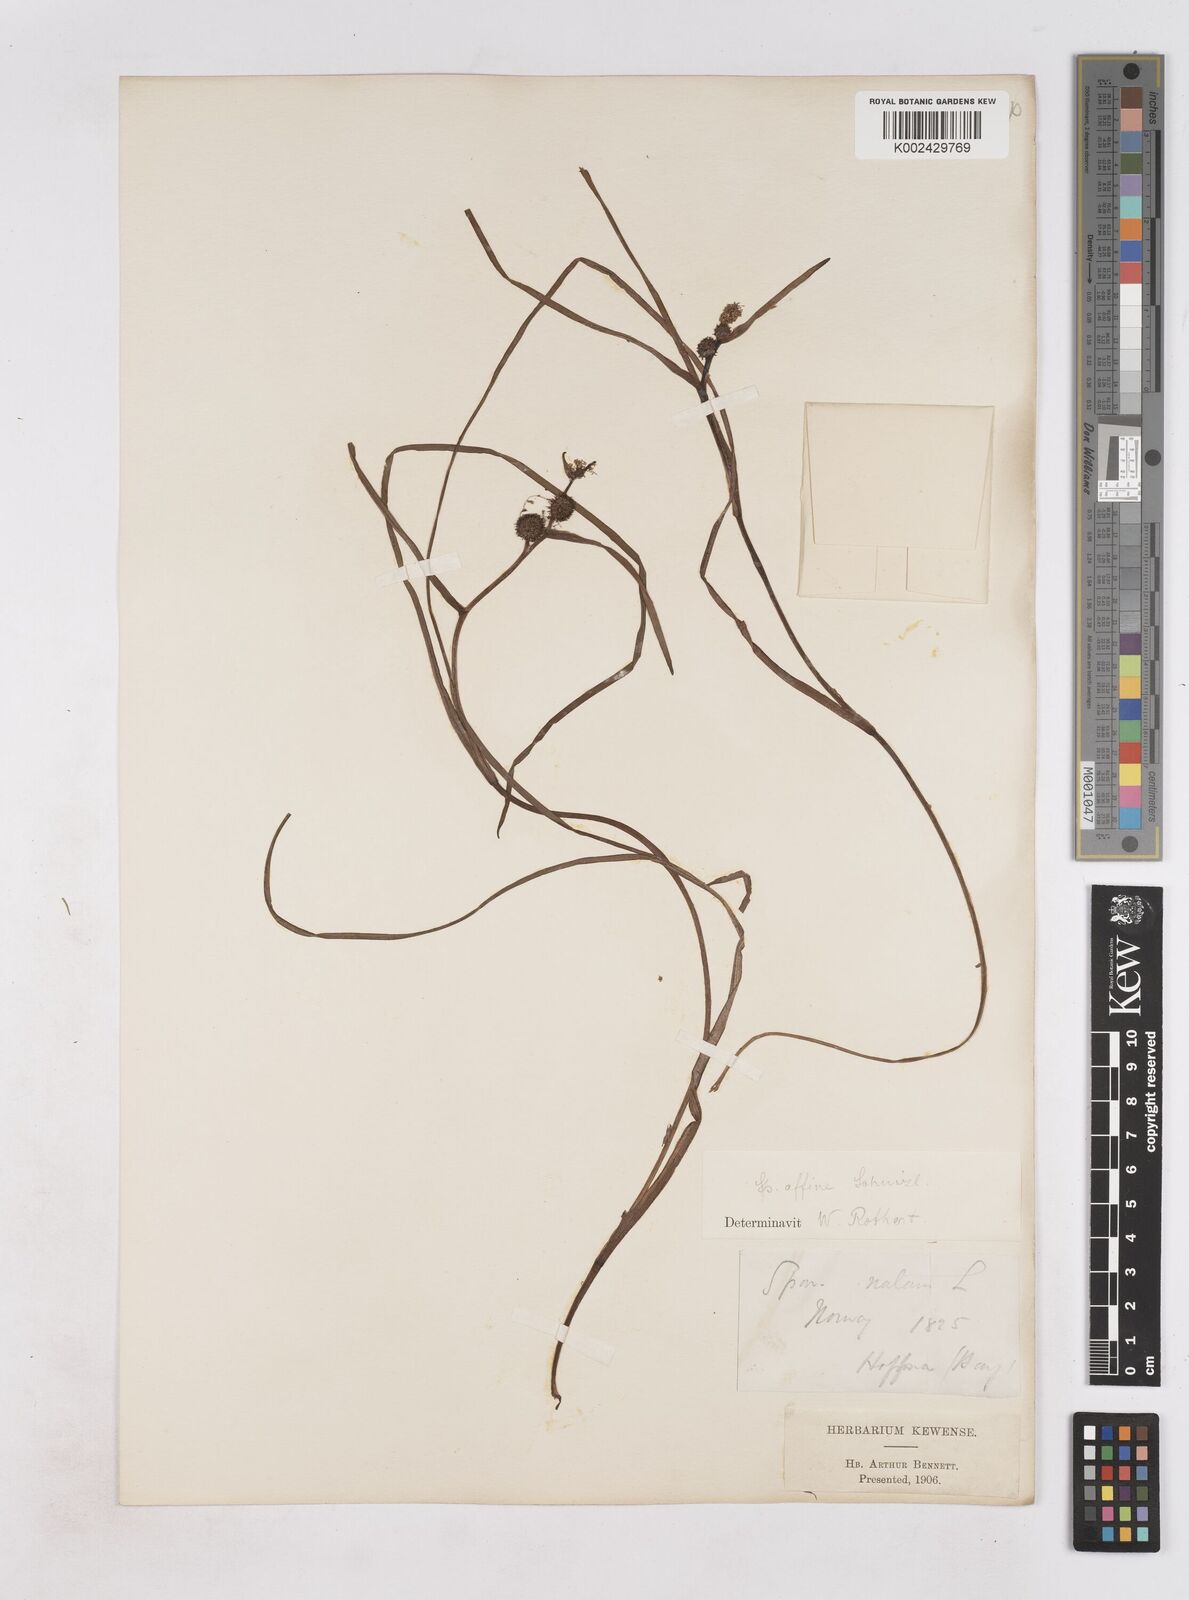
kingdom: Plantae
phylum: Tracheophyta
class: Liliopsida
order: Poales
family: Typhaceae
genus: Sparganium
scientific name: Sparganium angustifolium
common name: Floating bur-reed
